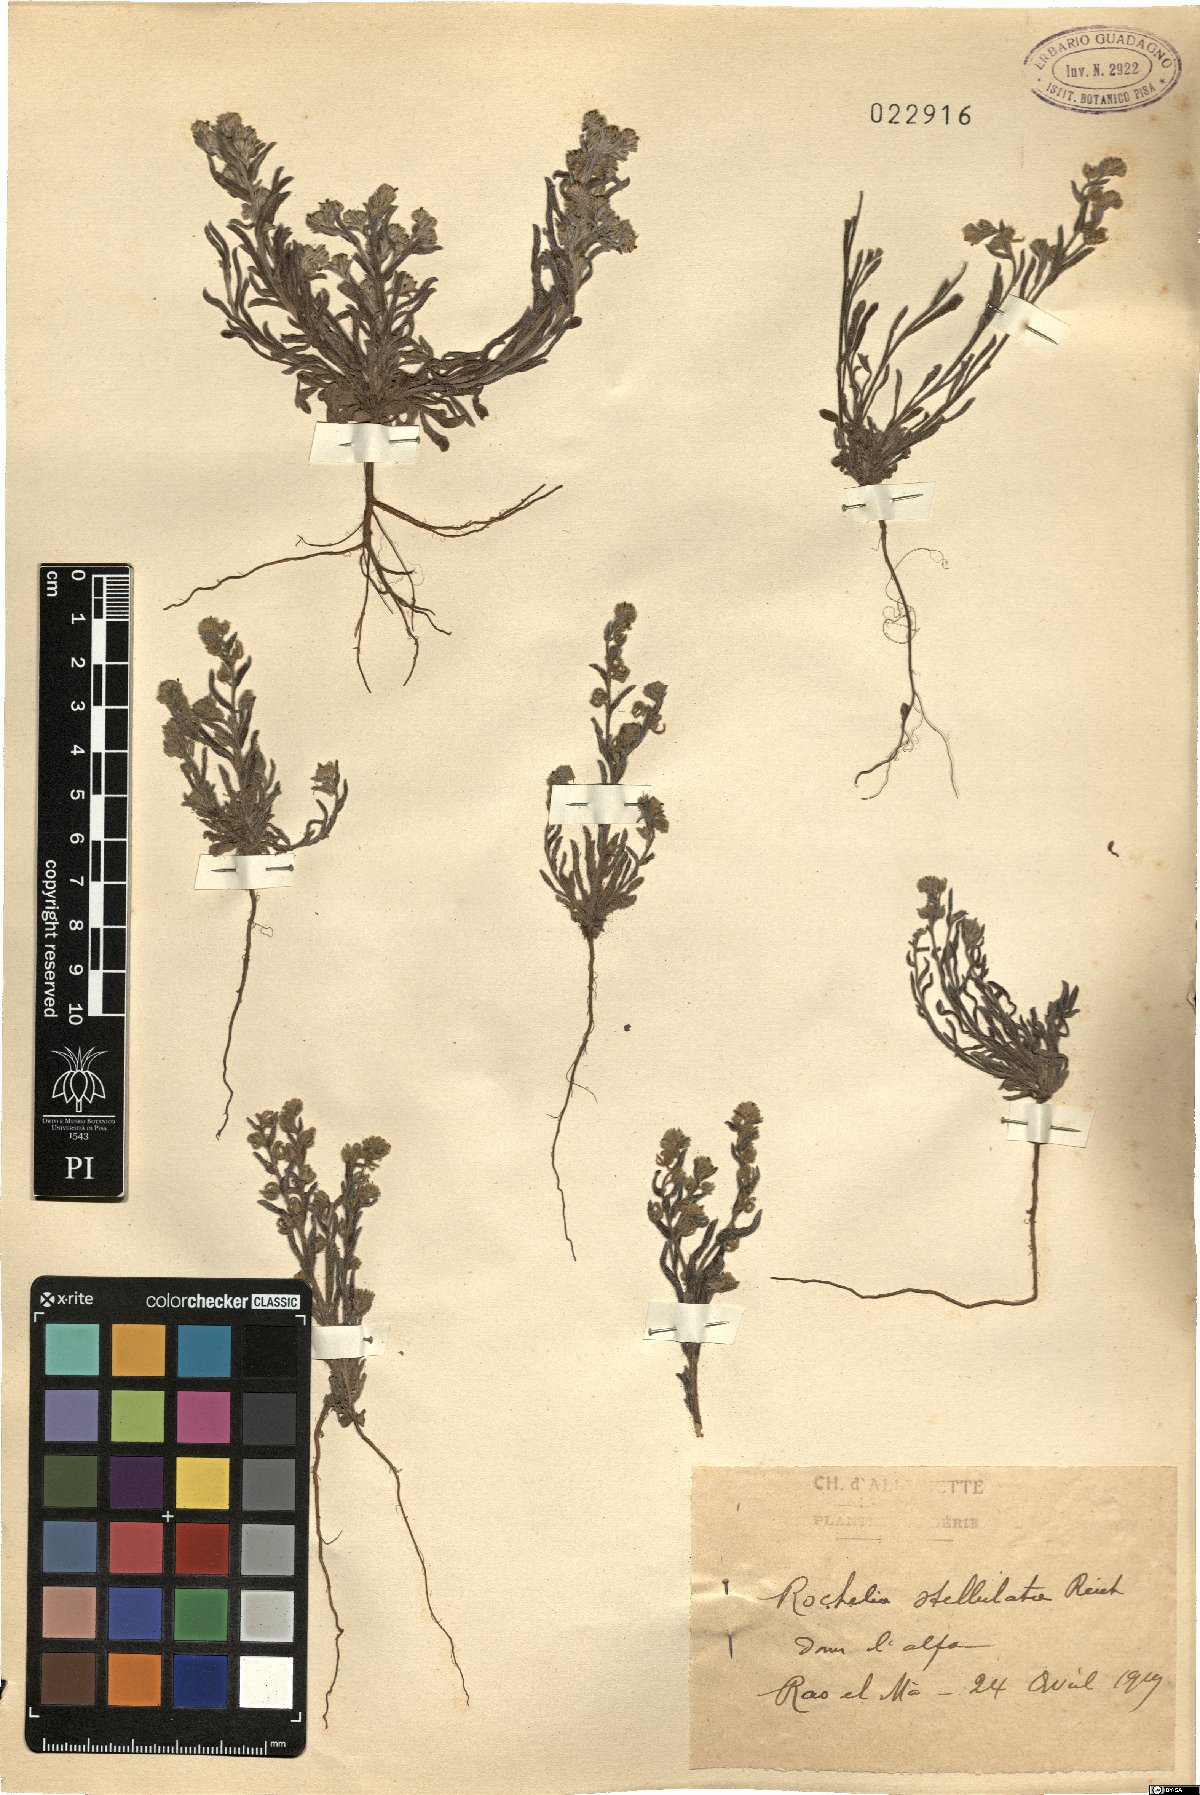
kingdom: Plantae
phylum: Tracheophyta
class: Magnoliopsida
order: Boraginales
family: Boraginaceae
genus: Rochelia
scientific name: Rochelia disperma
